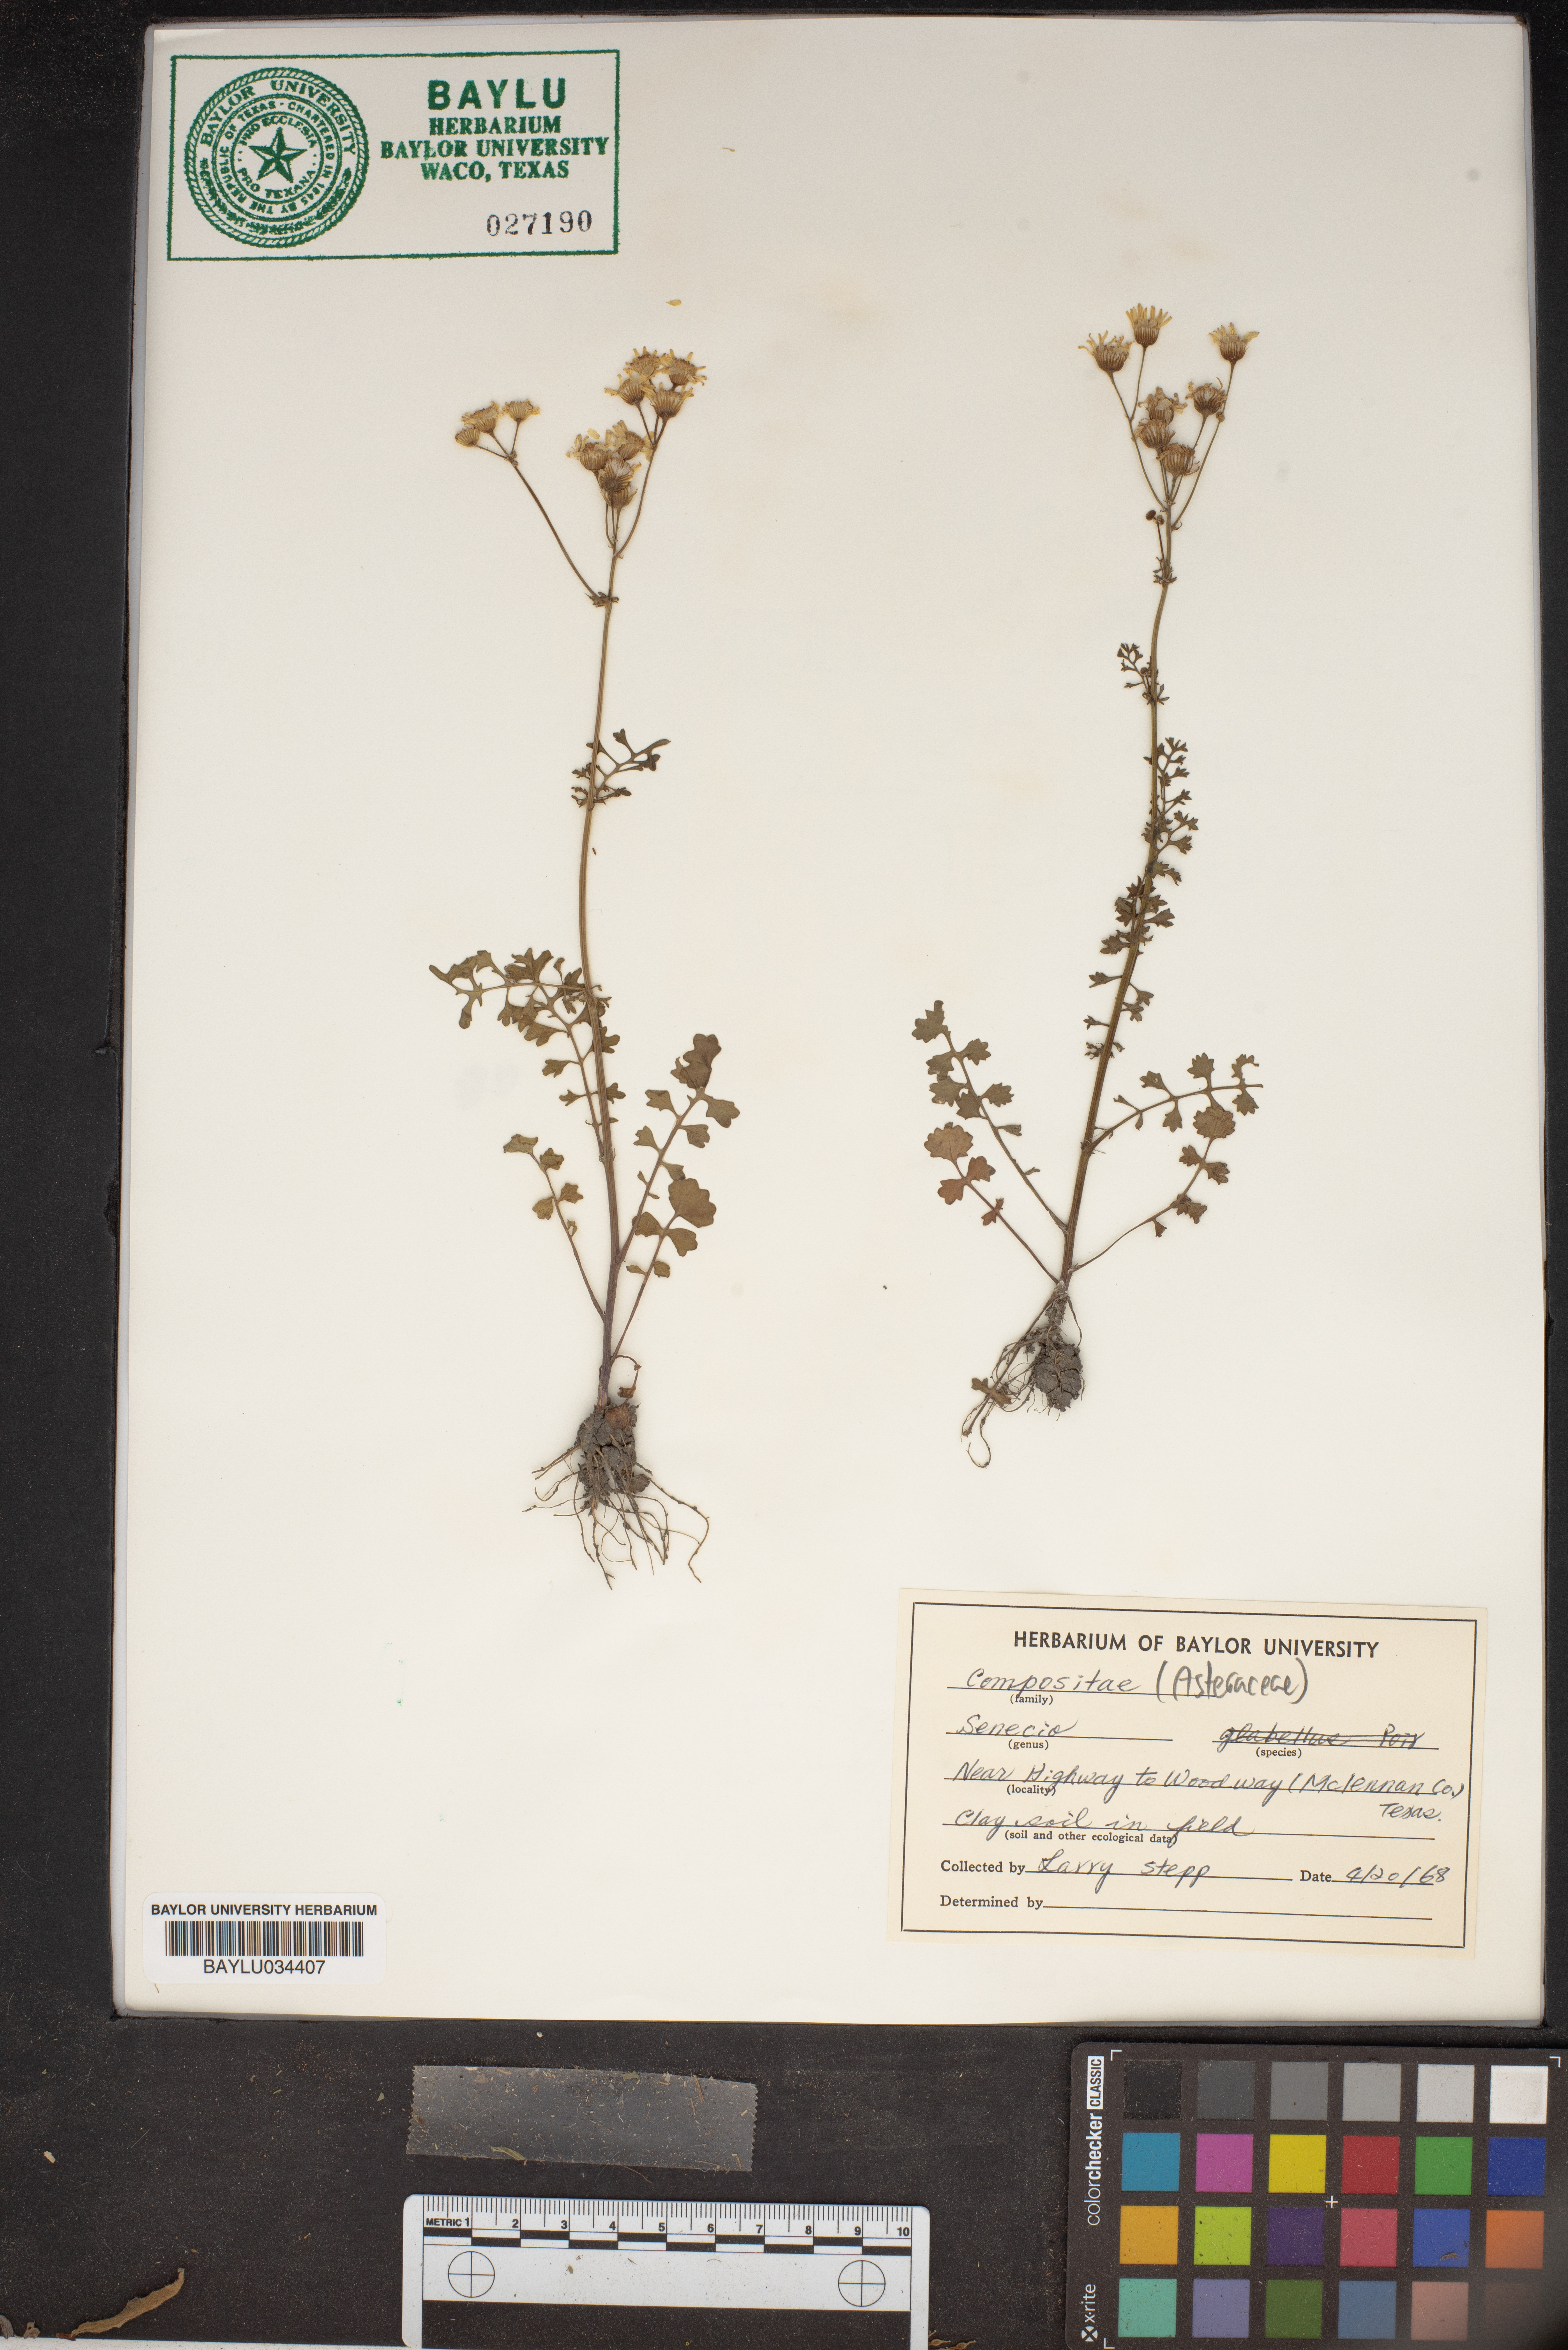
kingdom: Plantae
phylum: Tracheophyta
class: Magnoliopsida
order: Asterales
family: Asteraceae
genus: Senecio
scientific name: Senecio
